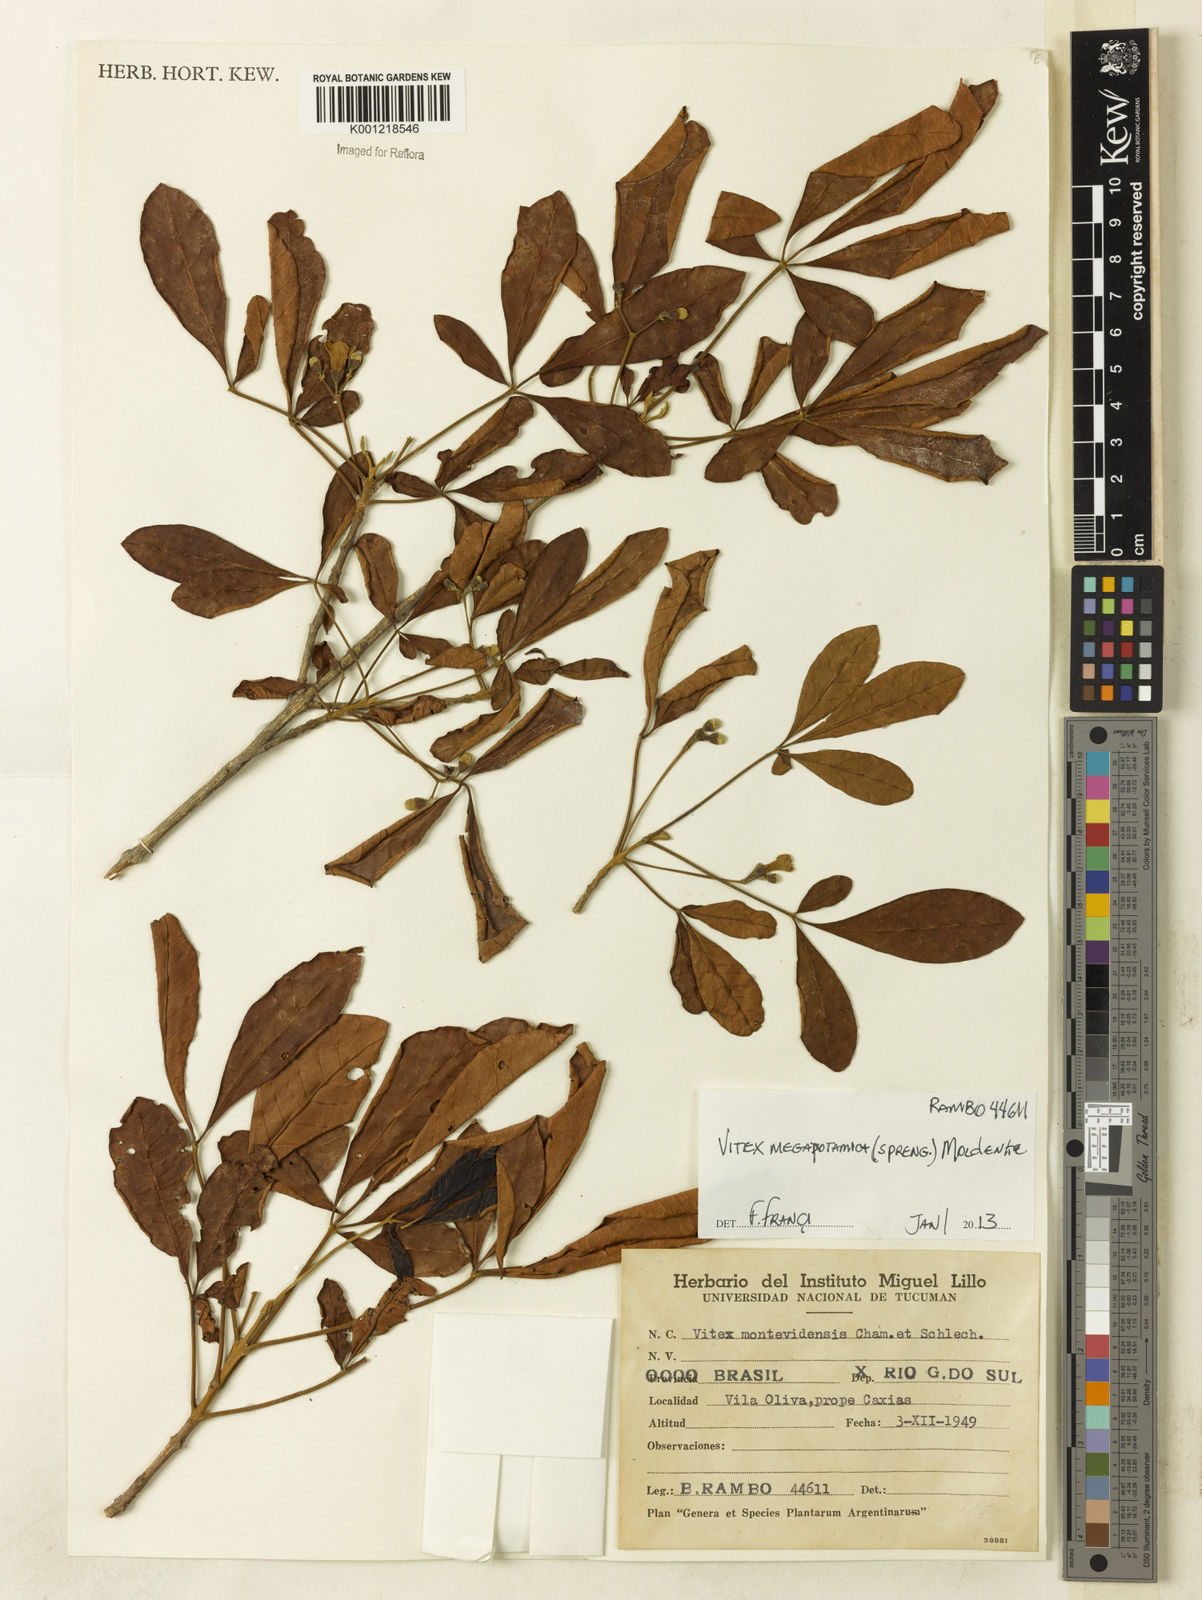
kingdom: Plantae
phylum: Tracheophyta
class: Magnoliopsida
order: Lamiales
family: Lamiaceae
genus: Vitex
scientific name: Vitex megapotamica
